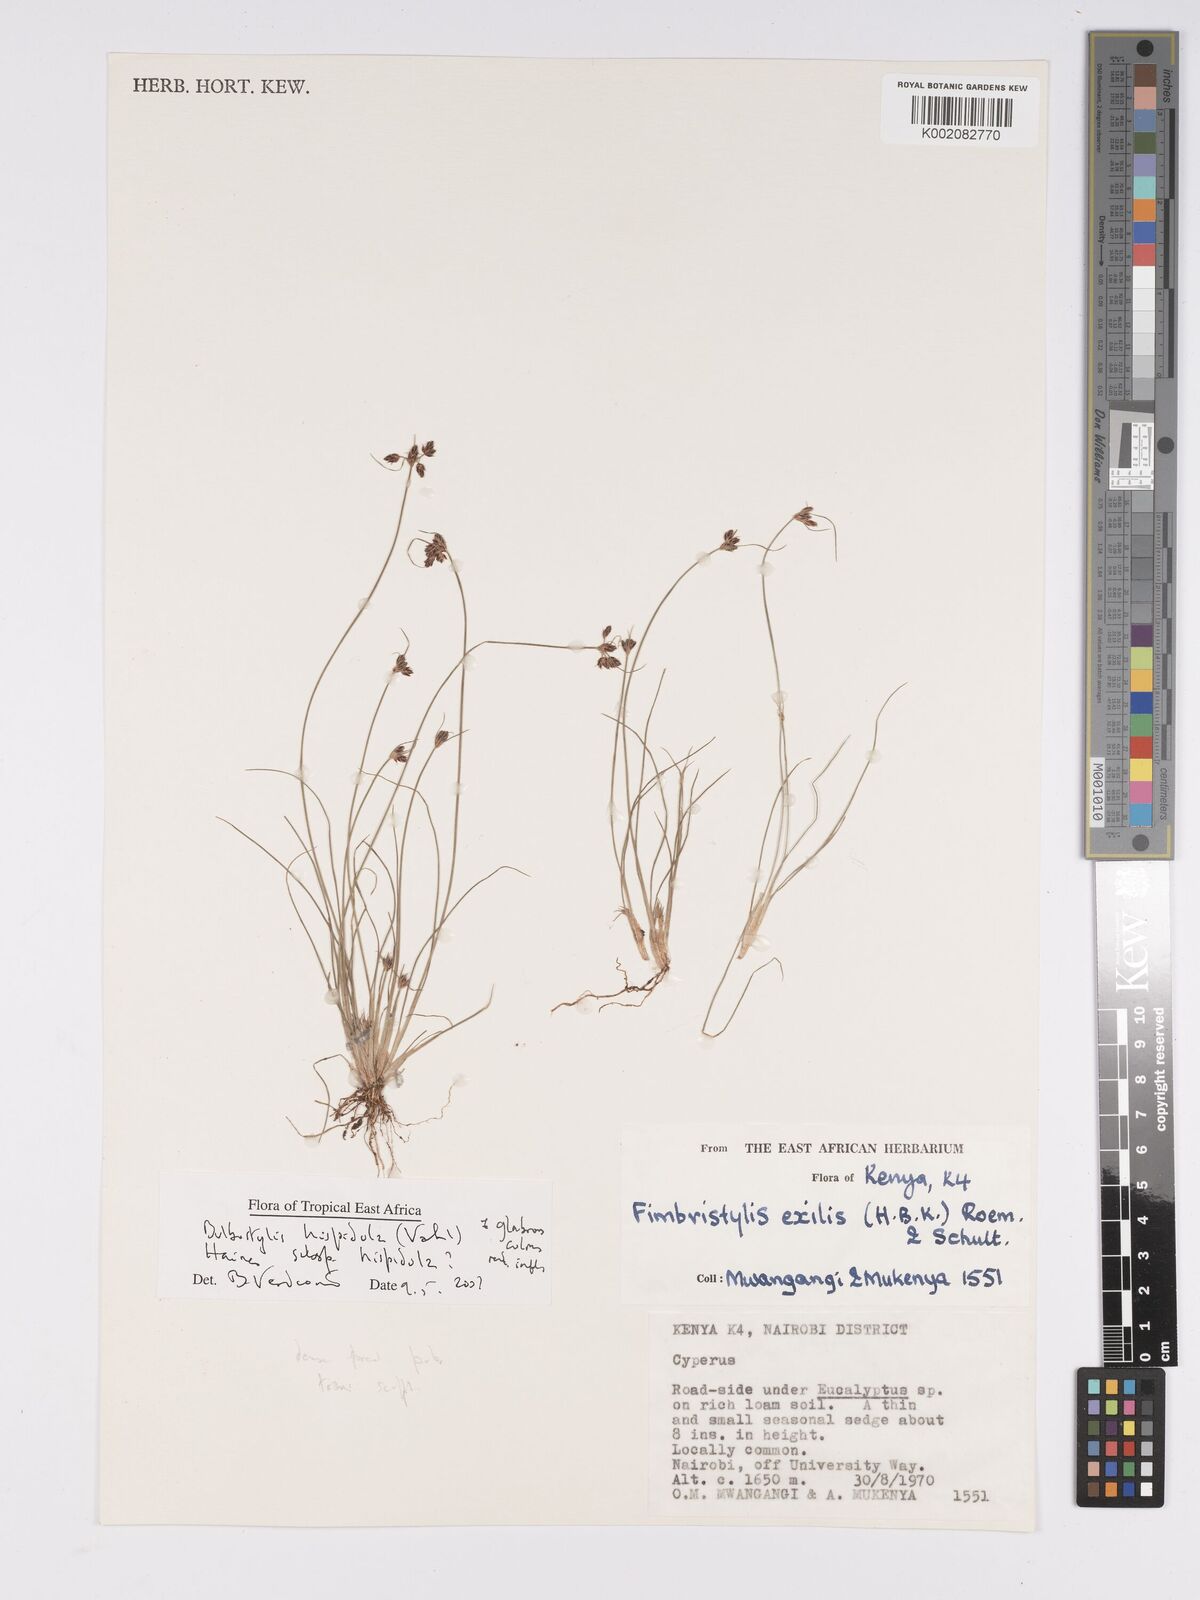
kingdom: Plantae
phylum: Tracheophyta
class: Liliopsida
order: Poales
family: Cyperaceae
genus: Bulbostylis
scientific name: Bulbostylis hispidula
